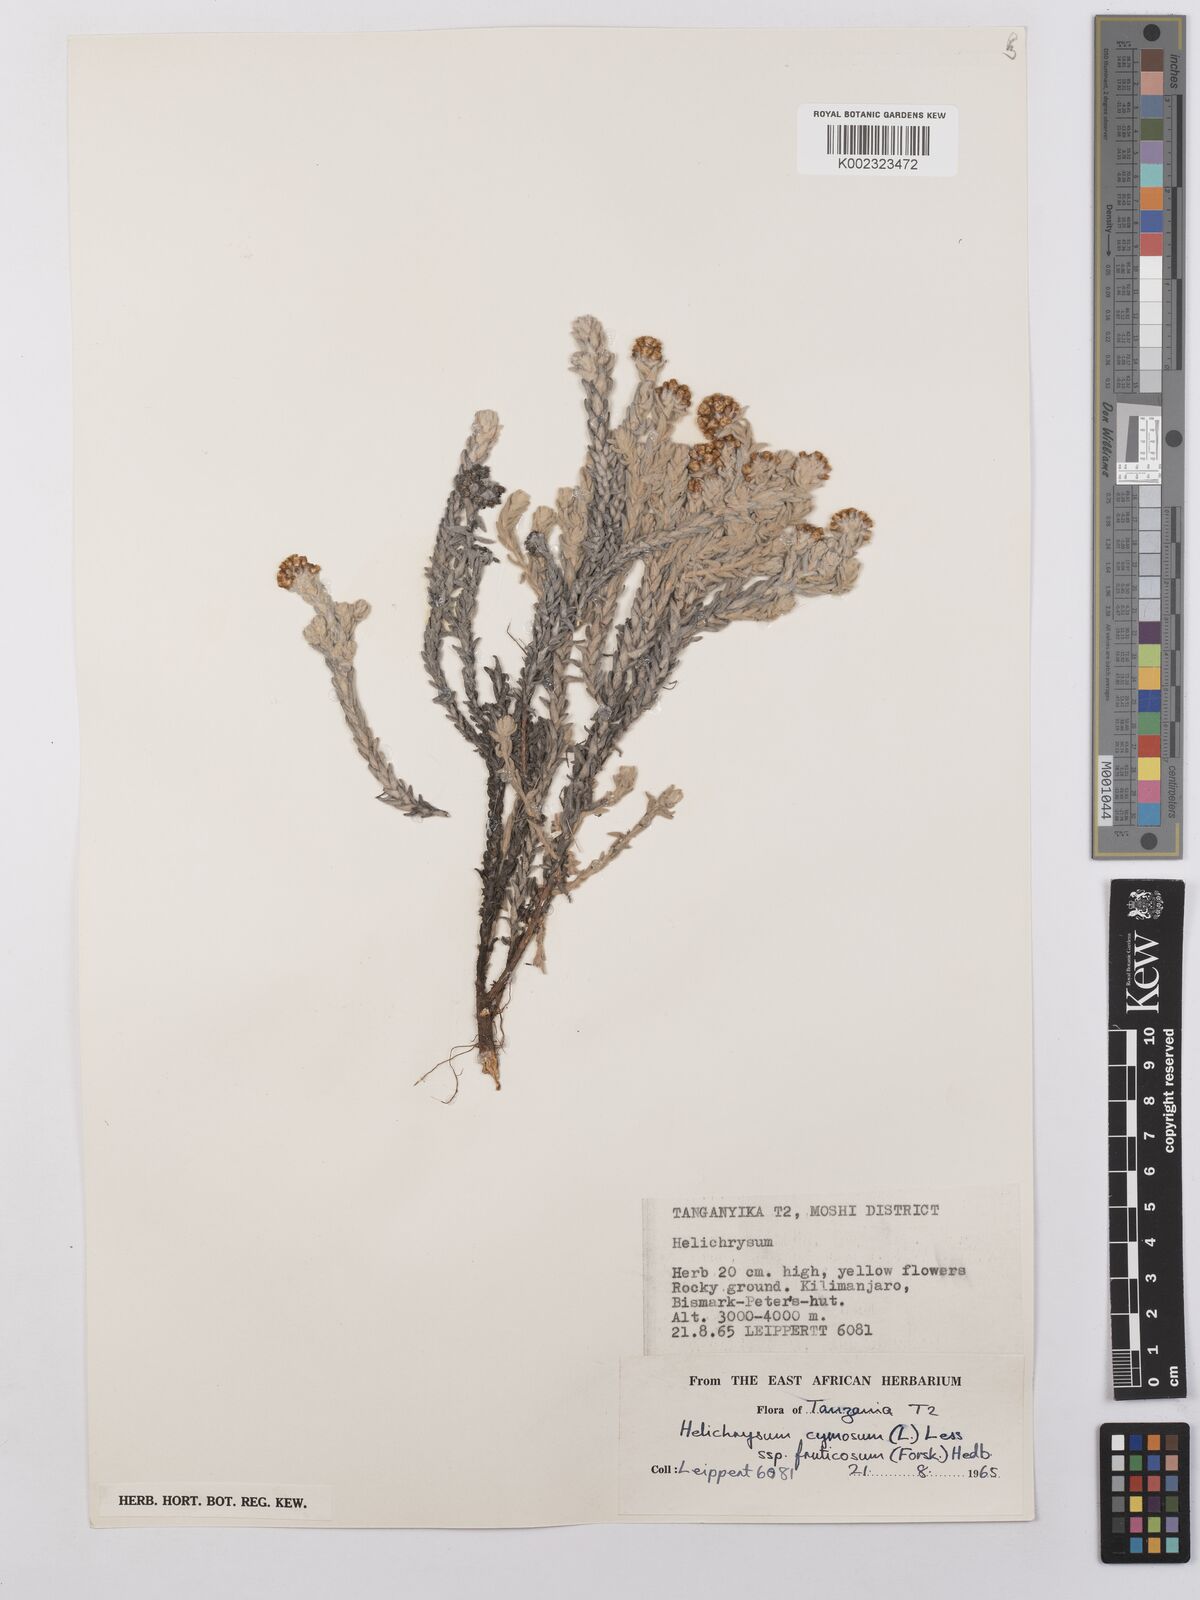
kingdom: Plantae
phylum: Tracheophyta
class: Magnoliopsida
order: Asterales
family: Asteraceae
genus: Helichrysum
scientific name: Helichrysum forskahlii
